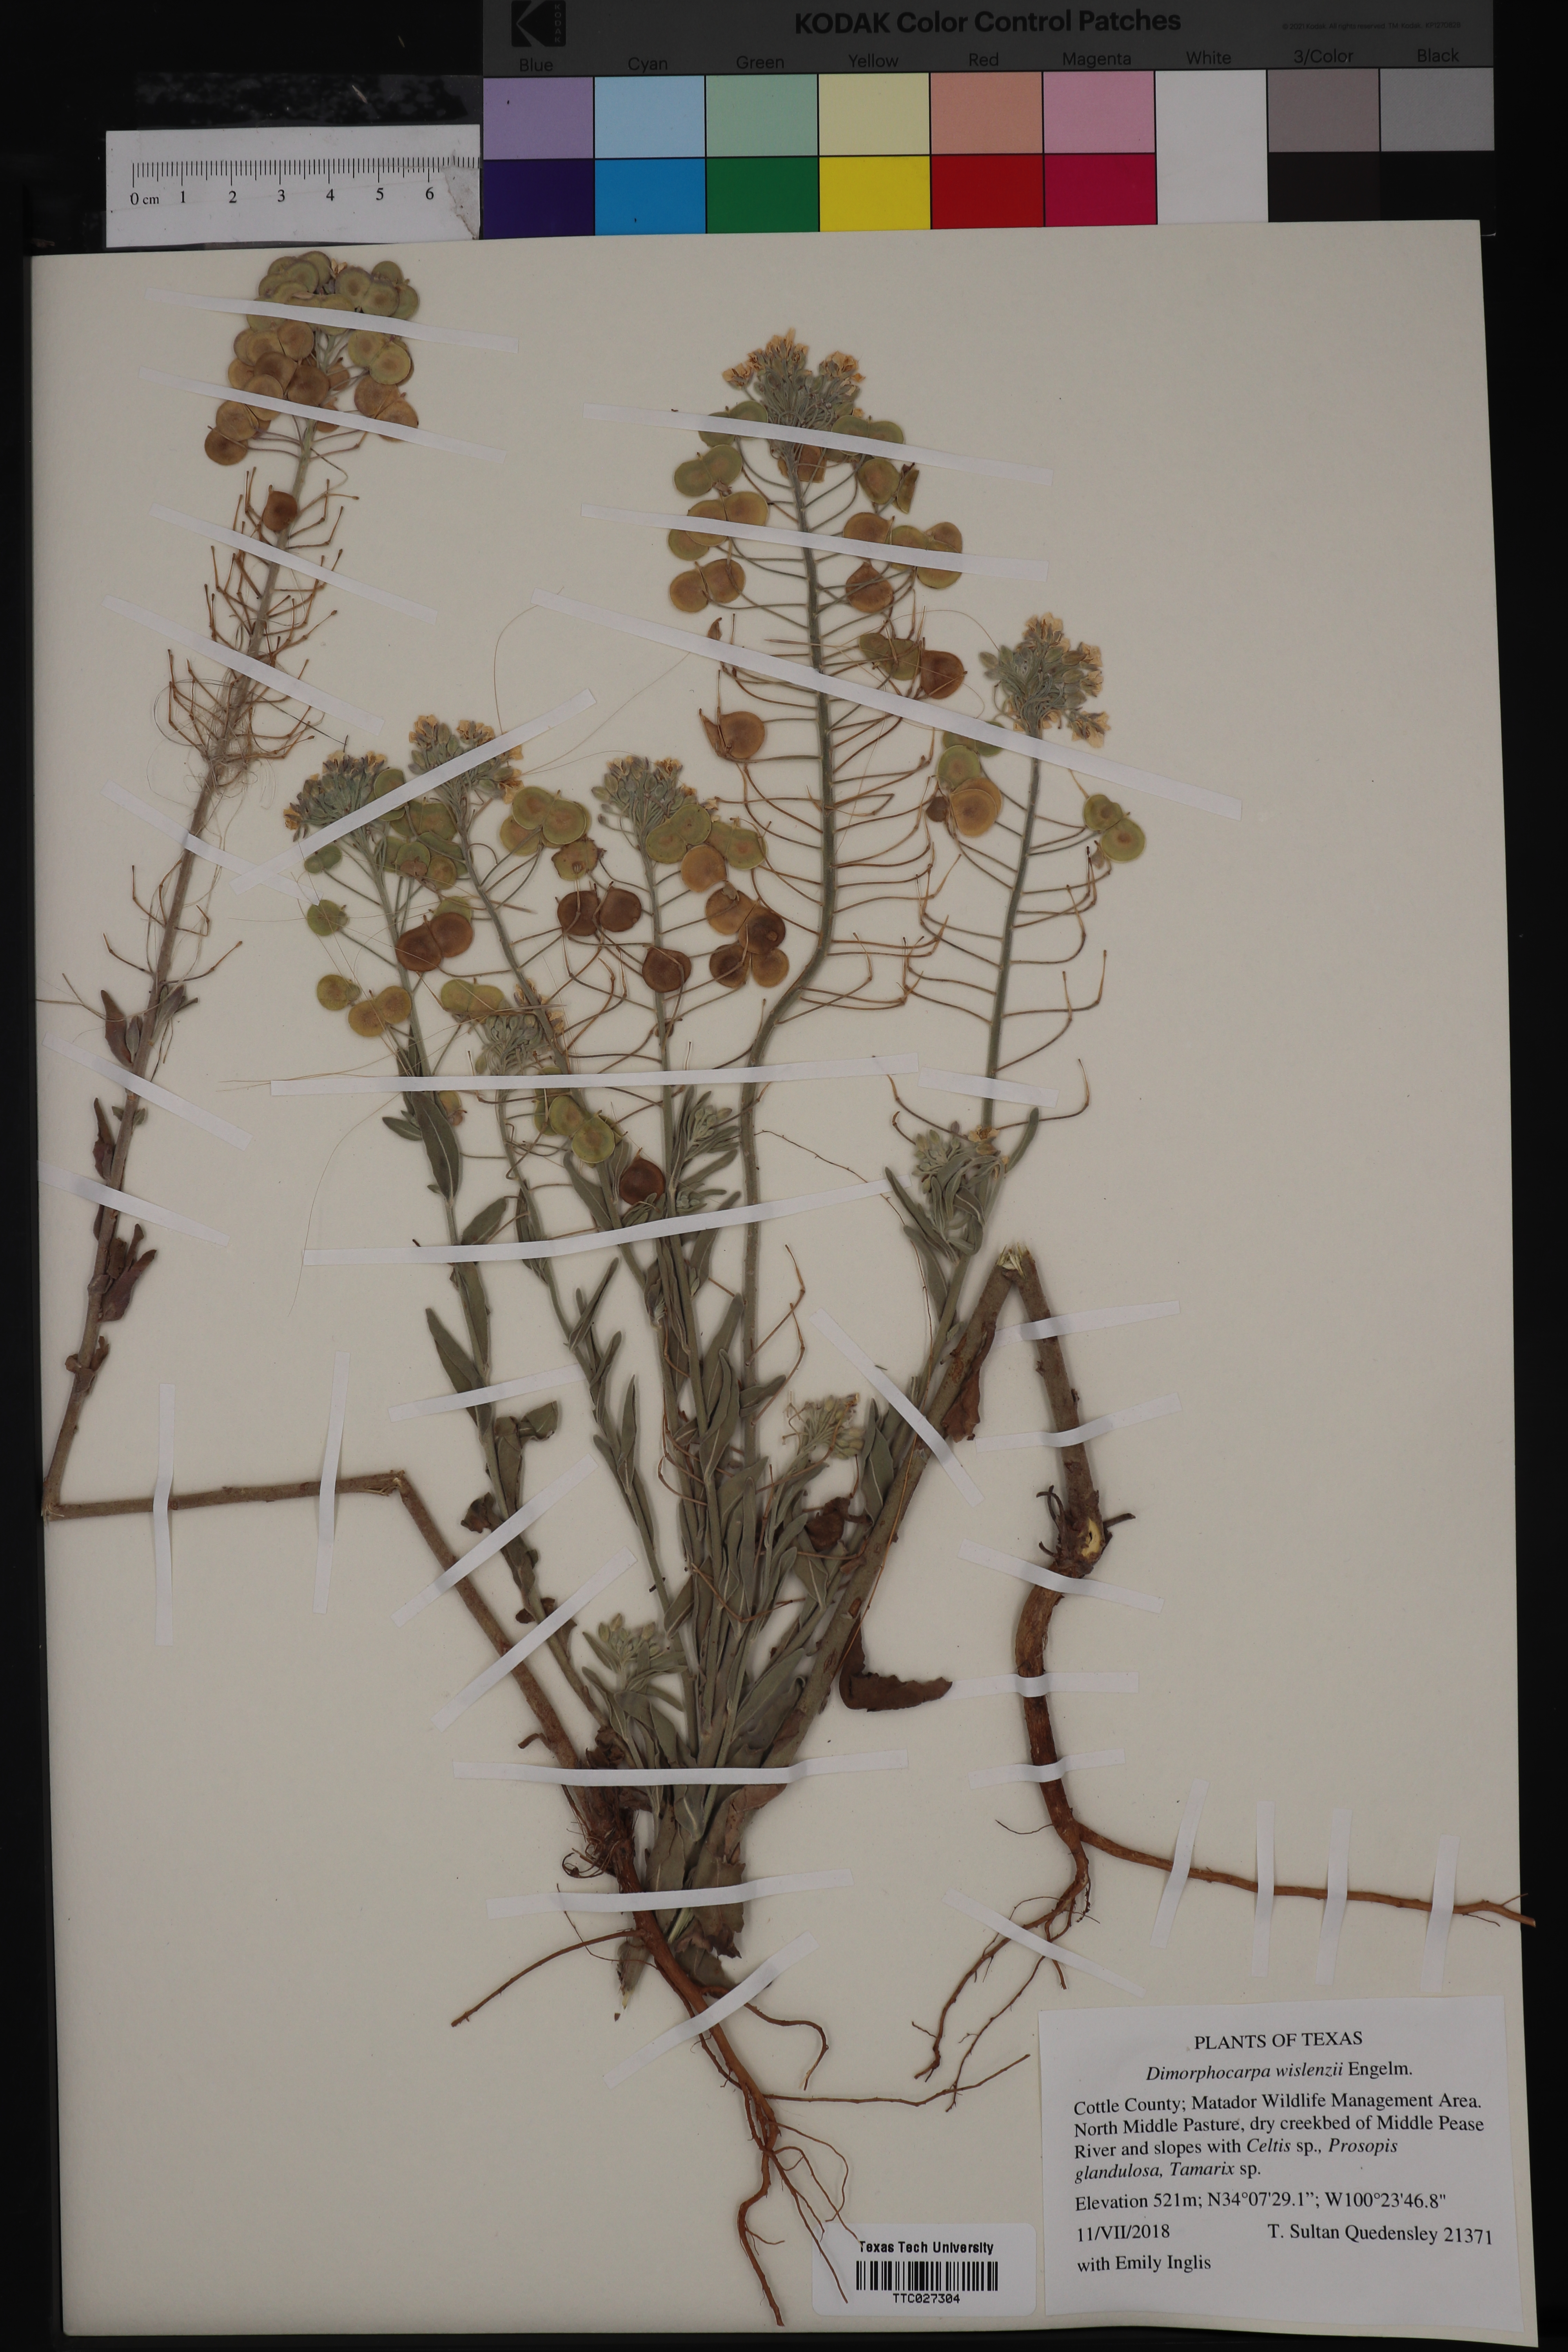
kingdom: Plantae
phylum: Tracheophyta
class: Magnoliopsida
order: Brassicales
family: Brassicaceae
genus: Dimorphocarpa
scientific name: Dimorphocarpa candicans
